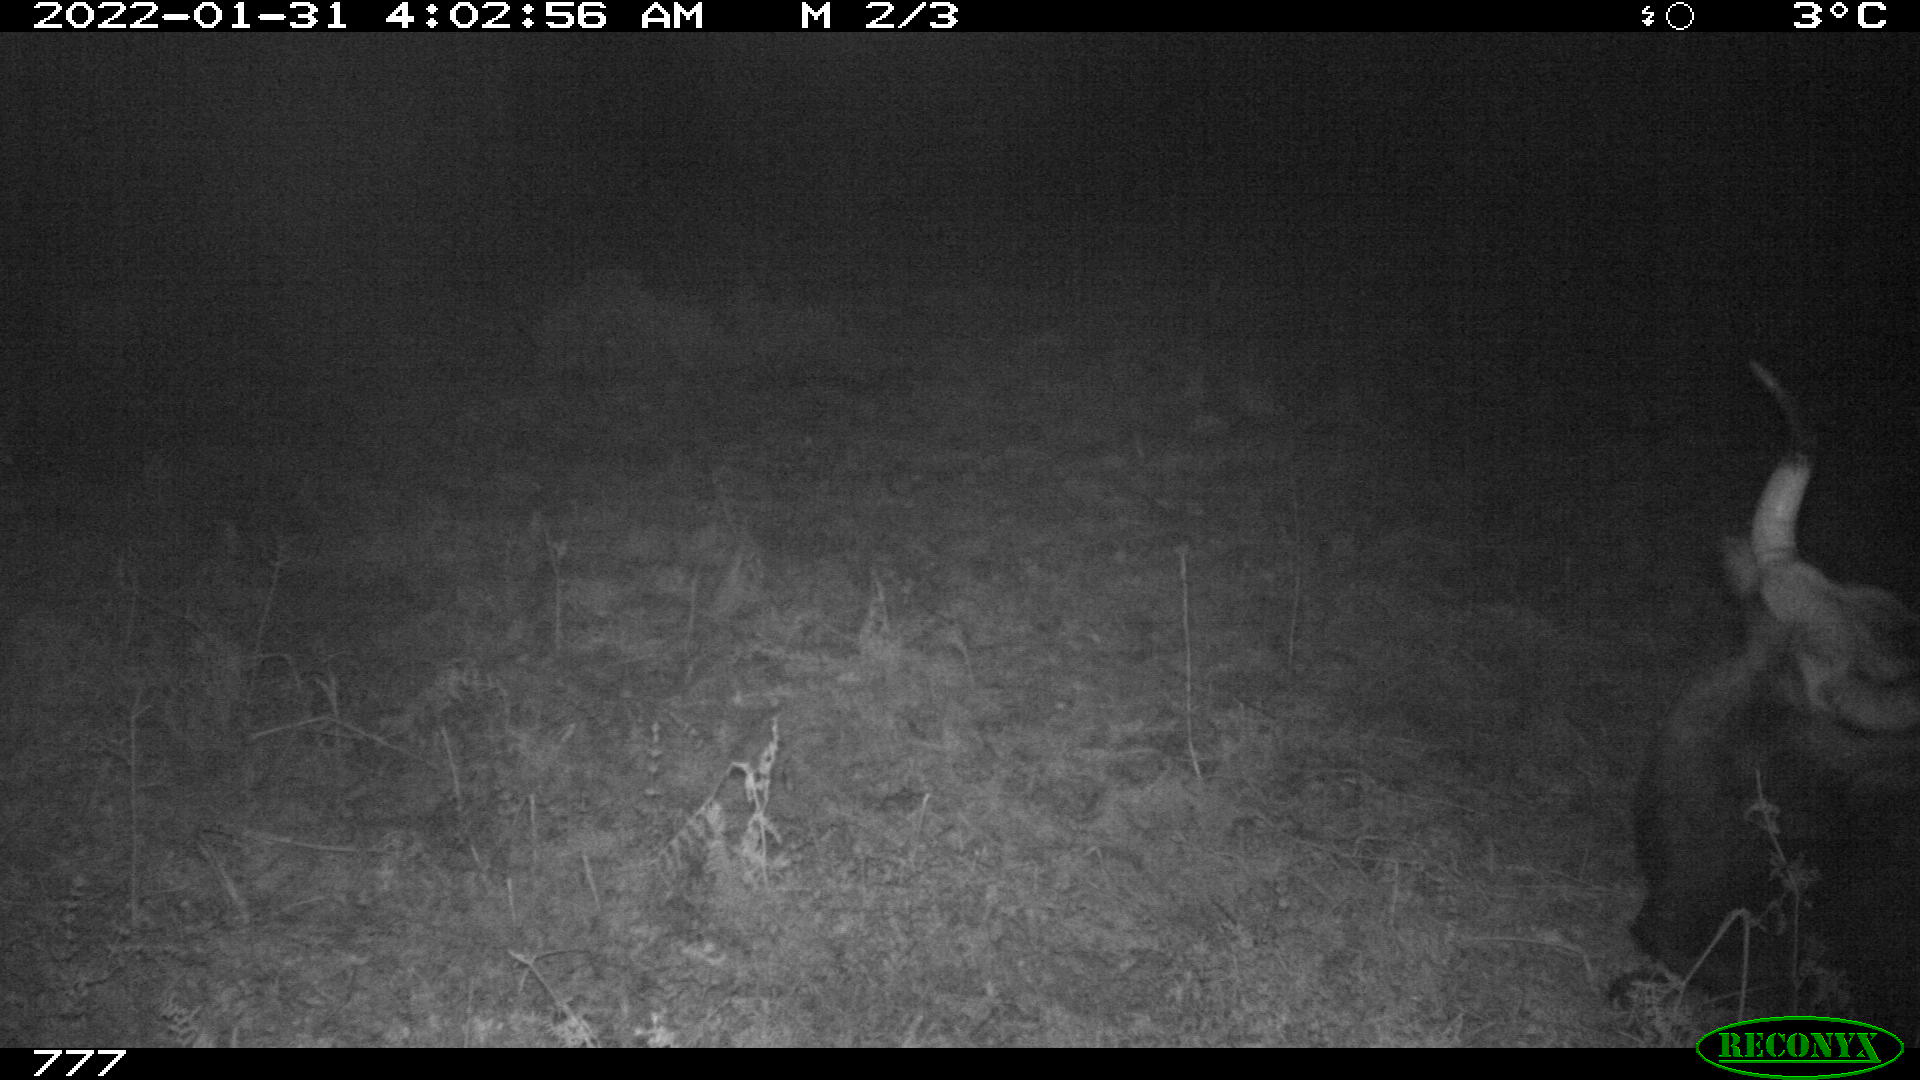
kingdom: Animalia
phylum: Chordata
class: Mammalia
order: Artiodactyla
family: Bovidae
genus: Bos
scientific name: Bos taurus
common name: Domesticated cattle
